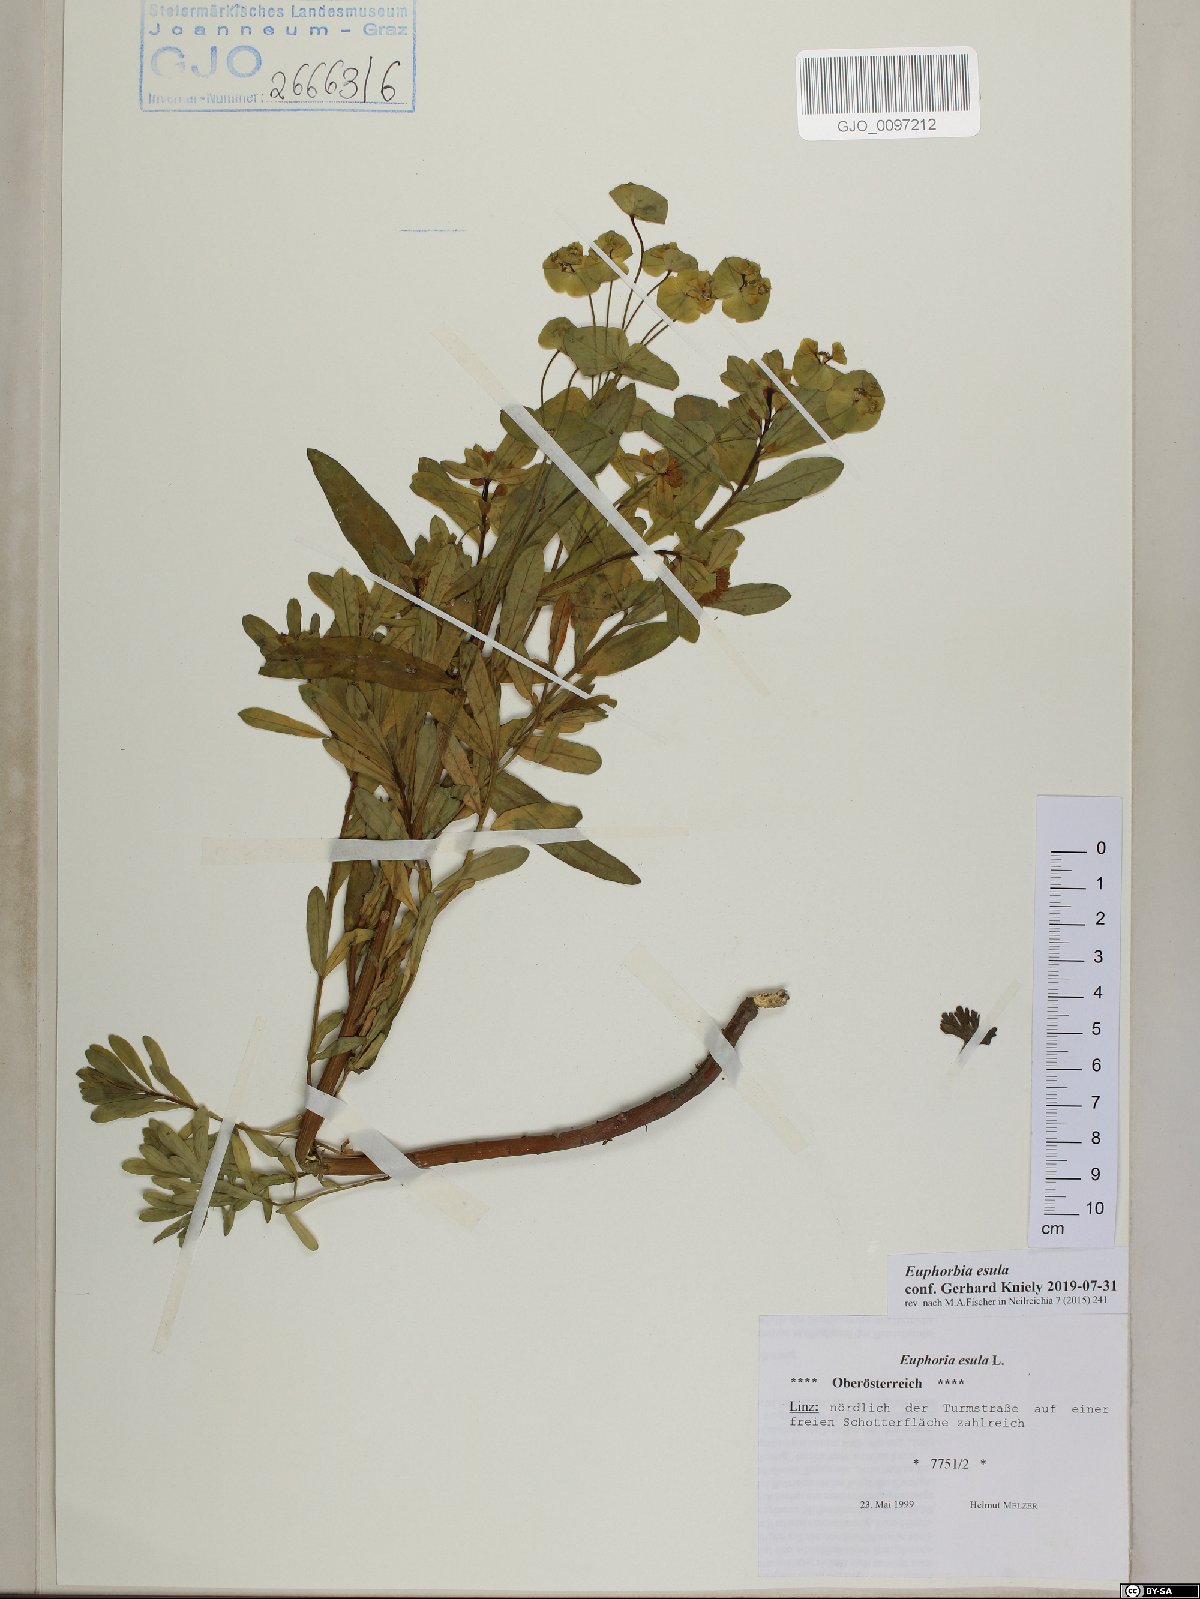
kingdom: Plantae
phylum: Tracheophyta
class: Magnoliopsida
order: Malpighiales
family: Euphorbiaceae
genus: Euphorbia
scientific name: Euphorbia esula
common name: Leafy spurge
